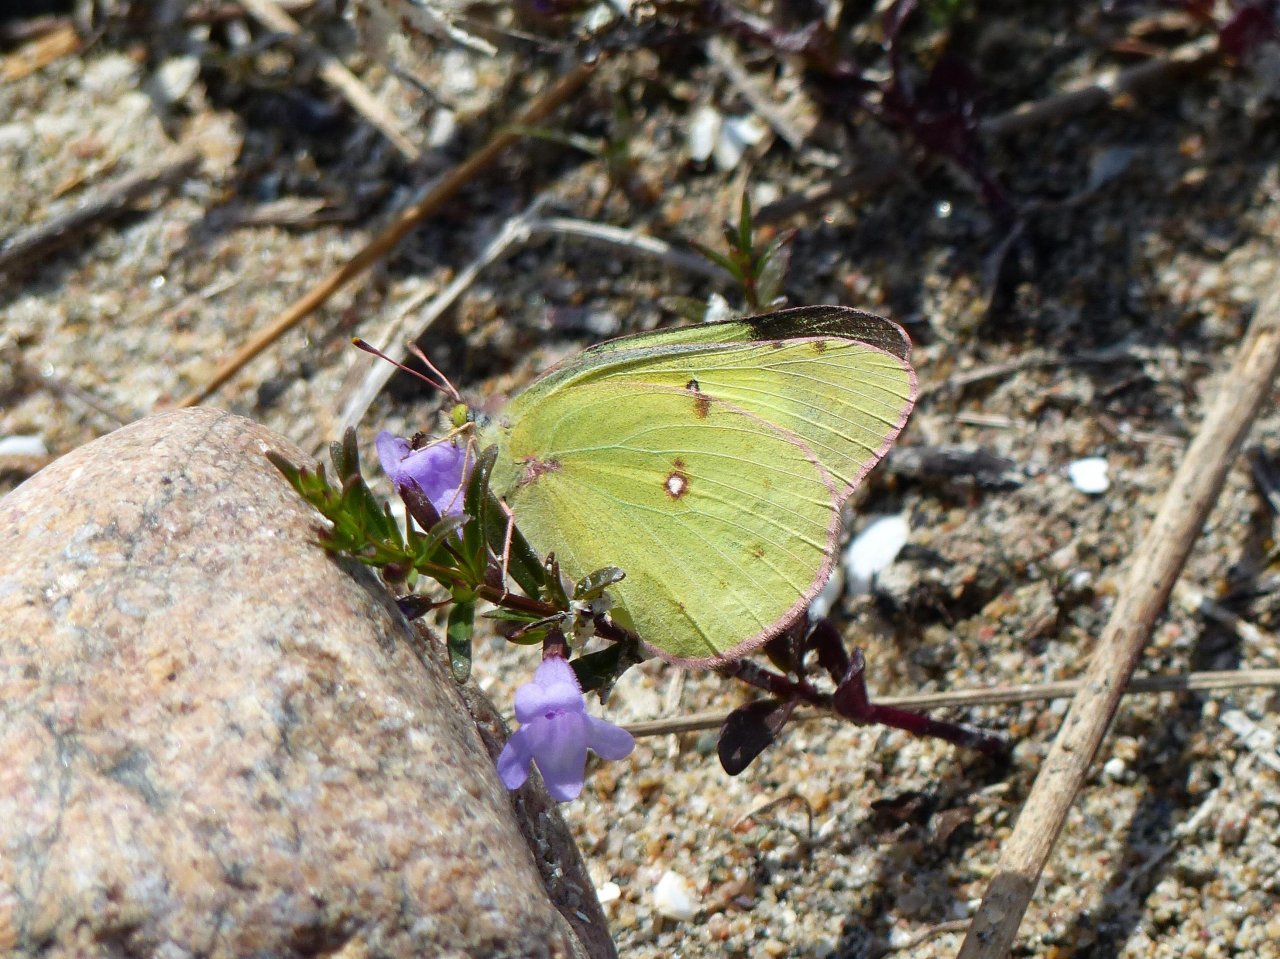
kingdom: Animalia
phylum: Arthropoda
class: Insecta
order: Lepidoptera
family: Pieridae
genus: Colias
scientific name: Colias philodice
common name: Clouded Sulphur
